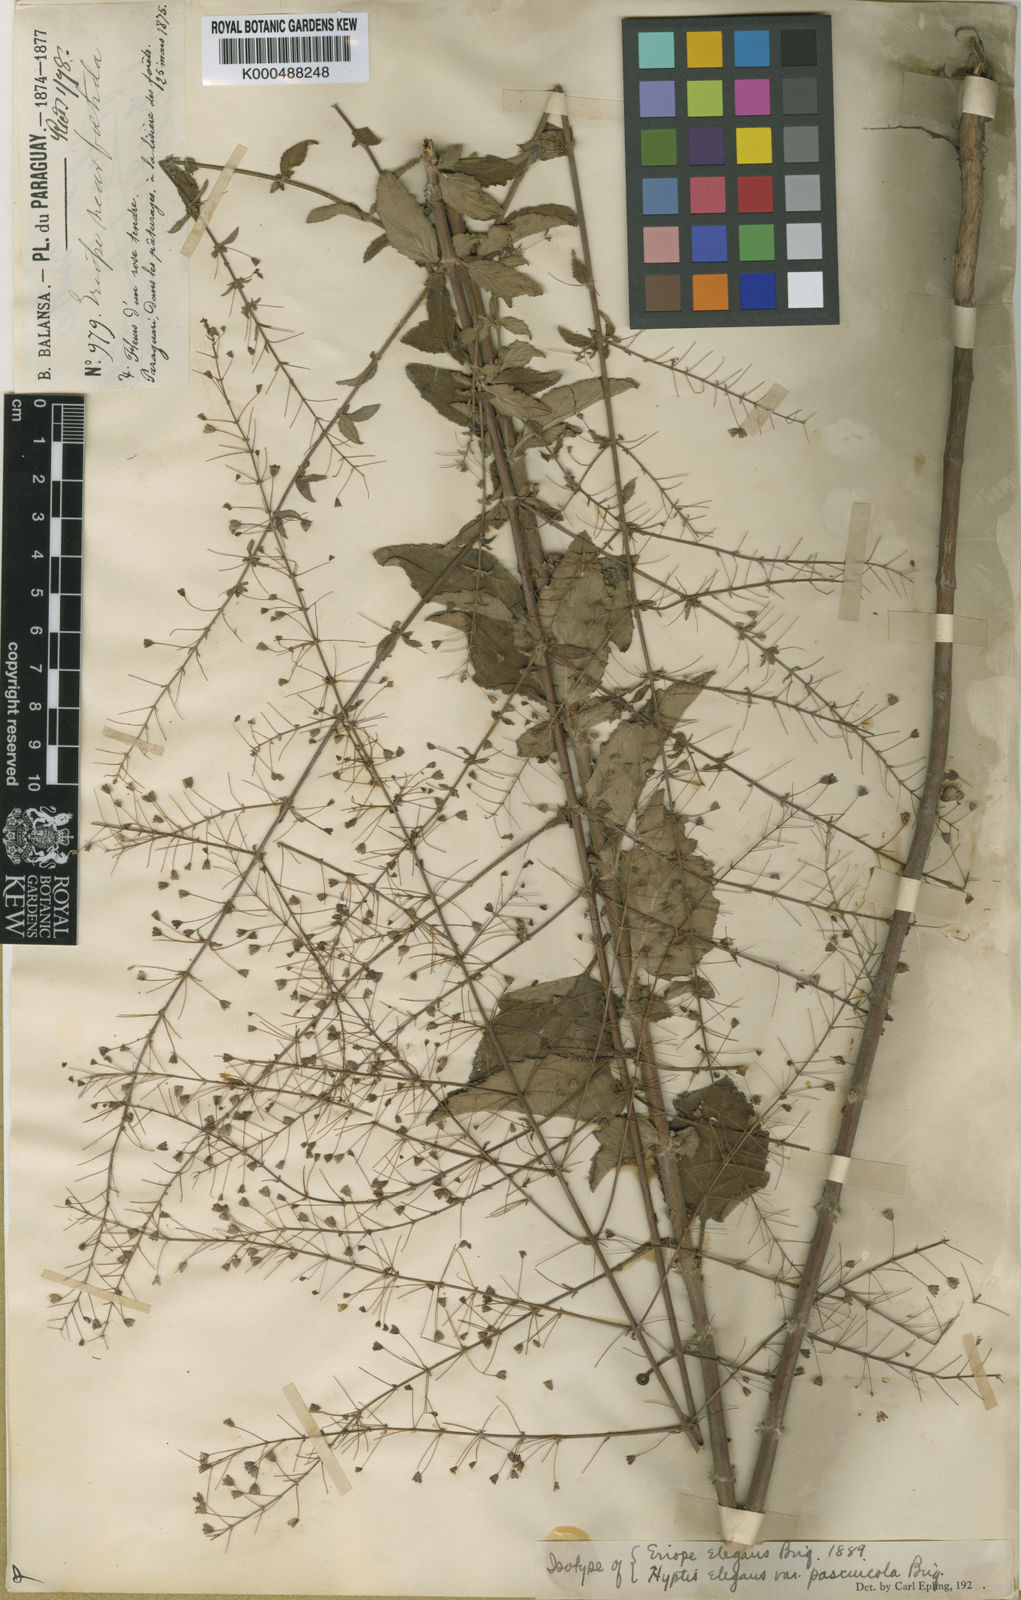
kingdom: Plantae
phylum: Tracheophyta
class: Magnoliopsida
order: Lamiales
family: Lamiaceae
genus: Hyptis
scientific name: Hyptis
